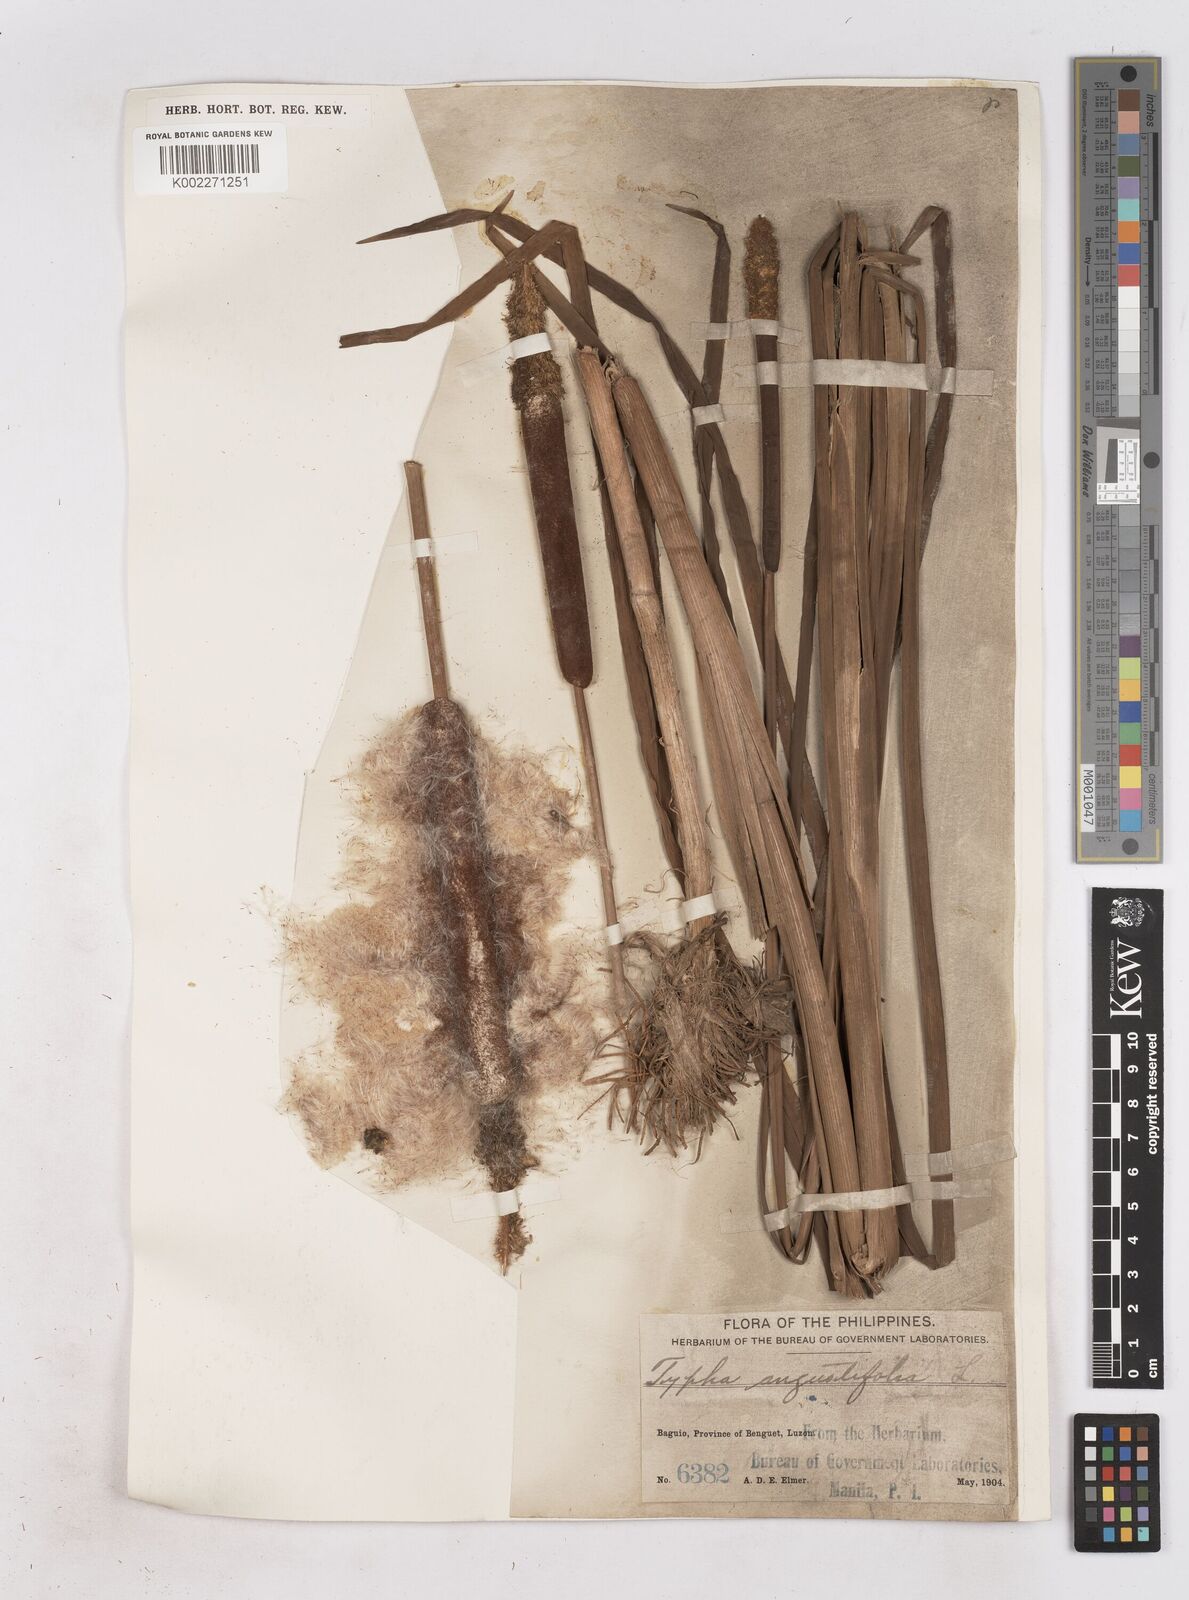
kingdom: Plantae
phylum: Tracheophyta
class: Liliopsida
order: Poales
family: Typhaceae
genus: Typha
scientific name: Typha angustifolia
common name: Lesser bulrush
